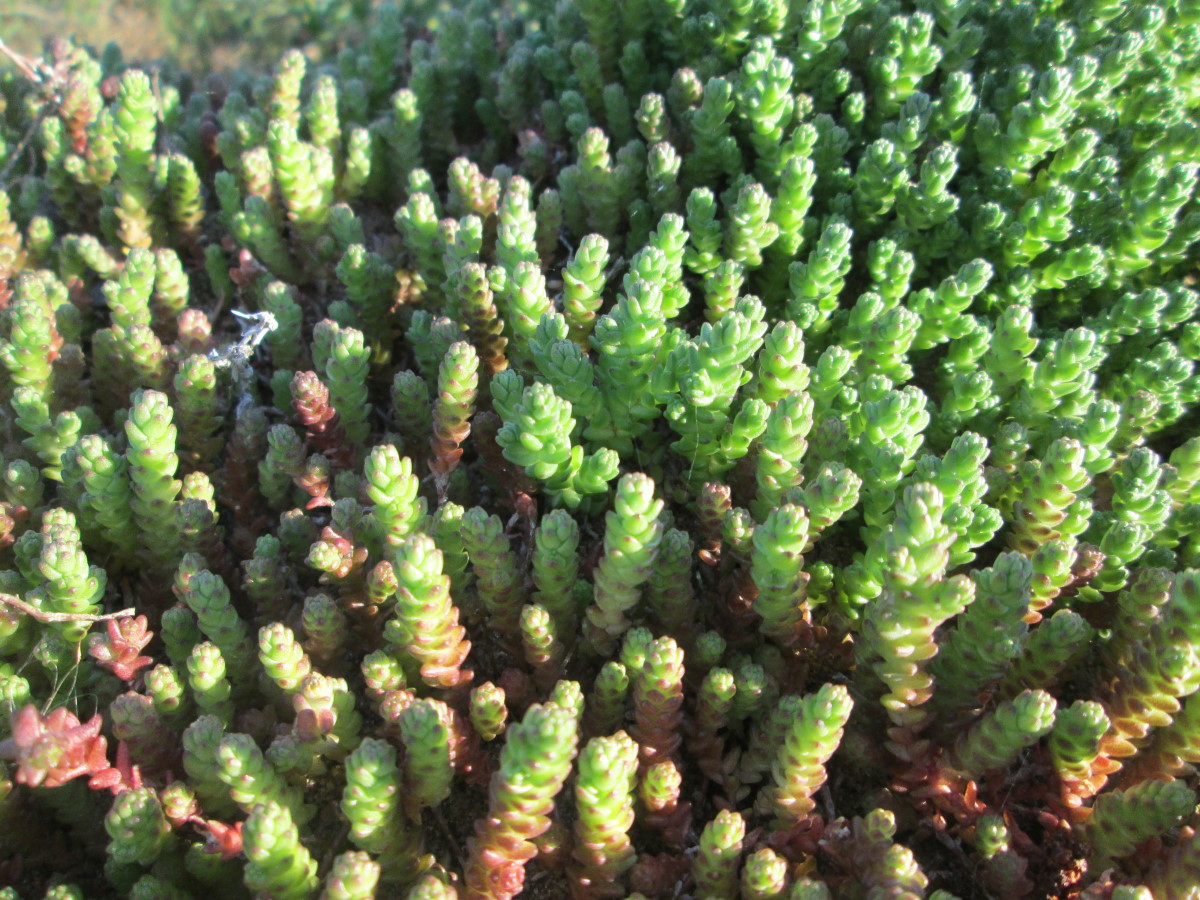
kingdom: Plantae
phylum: Tracheophyta
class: Magnoliopsida
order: Saxifragales
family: Crassulaceae
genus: Sedum
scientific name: Sedum acre
